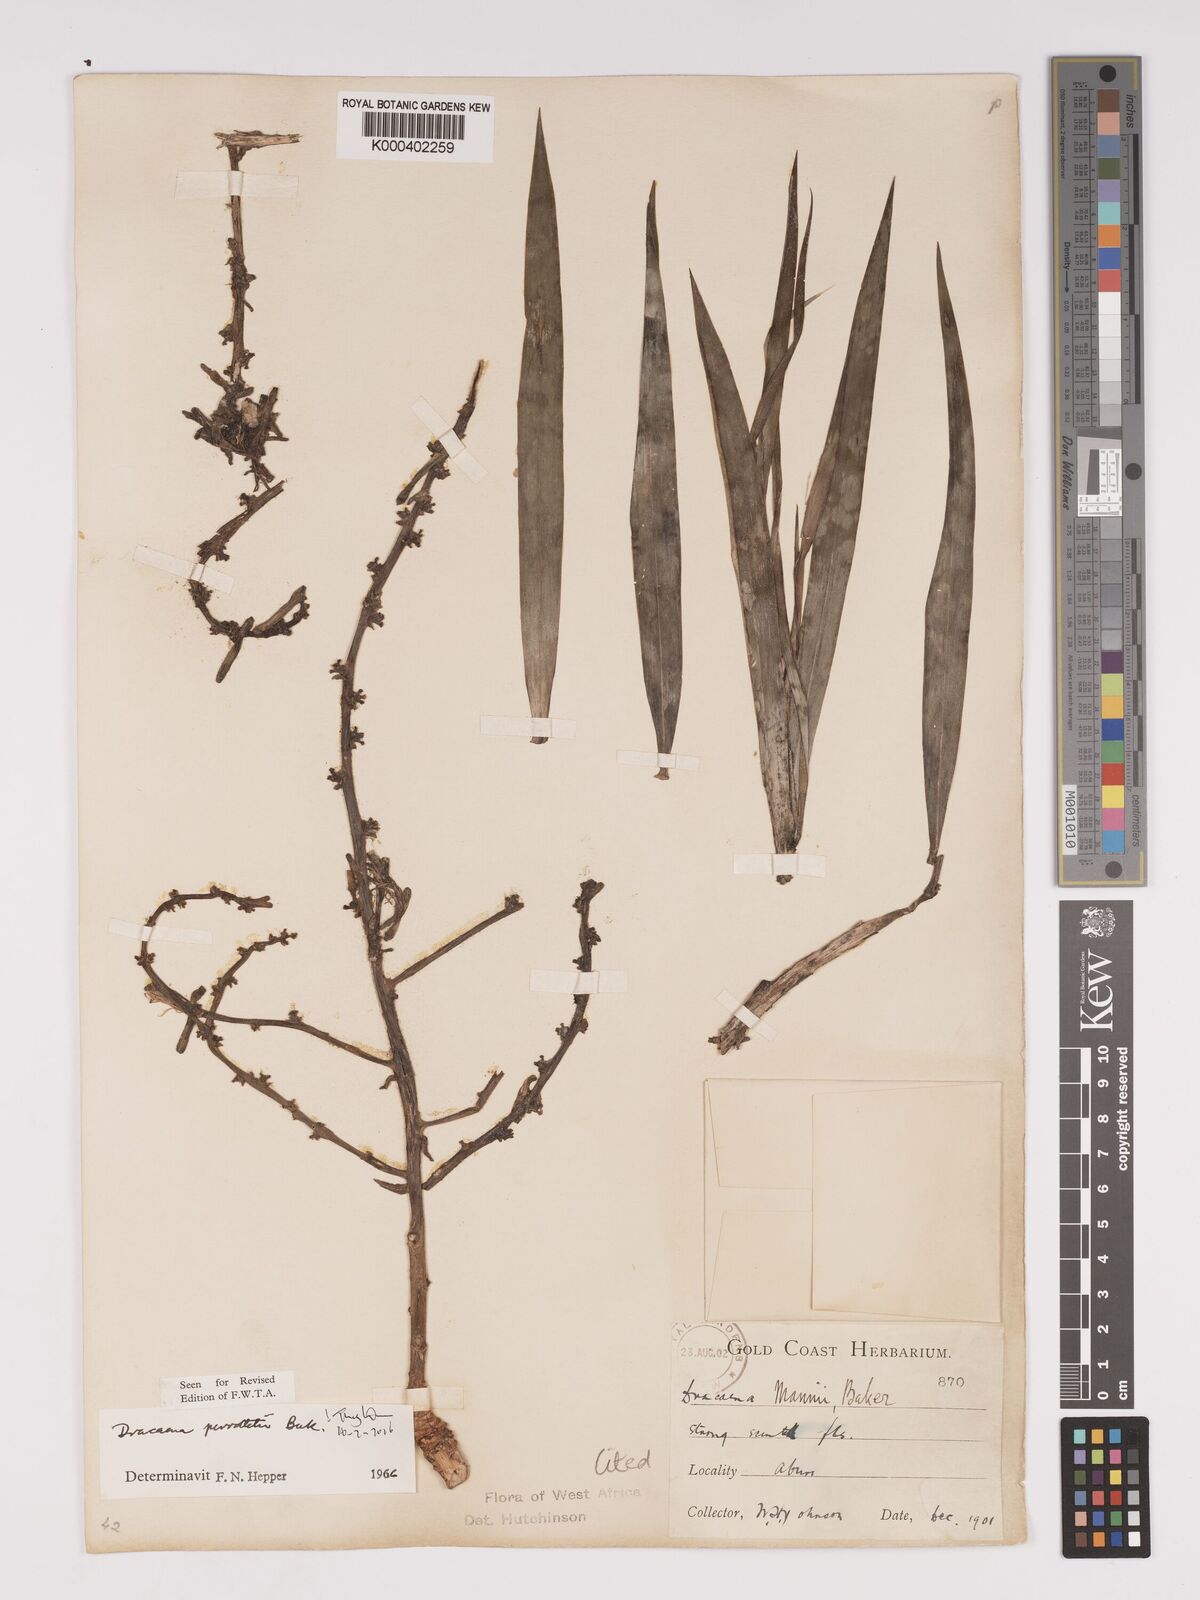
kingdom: Plantae
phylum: Tracheophyta
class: Liliopsida
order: Asparagales
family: Asparagaceae
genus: Dracaena
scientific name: Dracaena perrottetii
